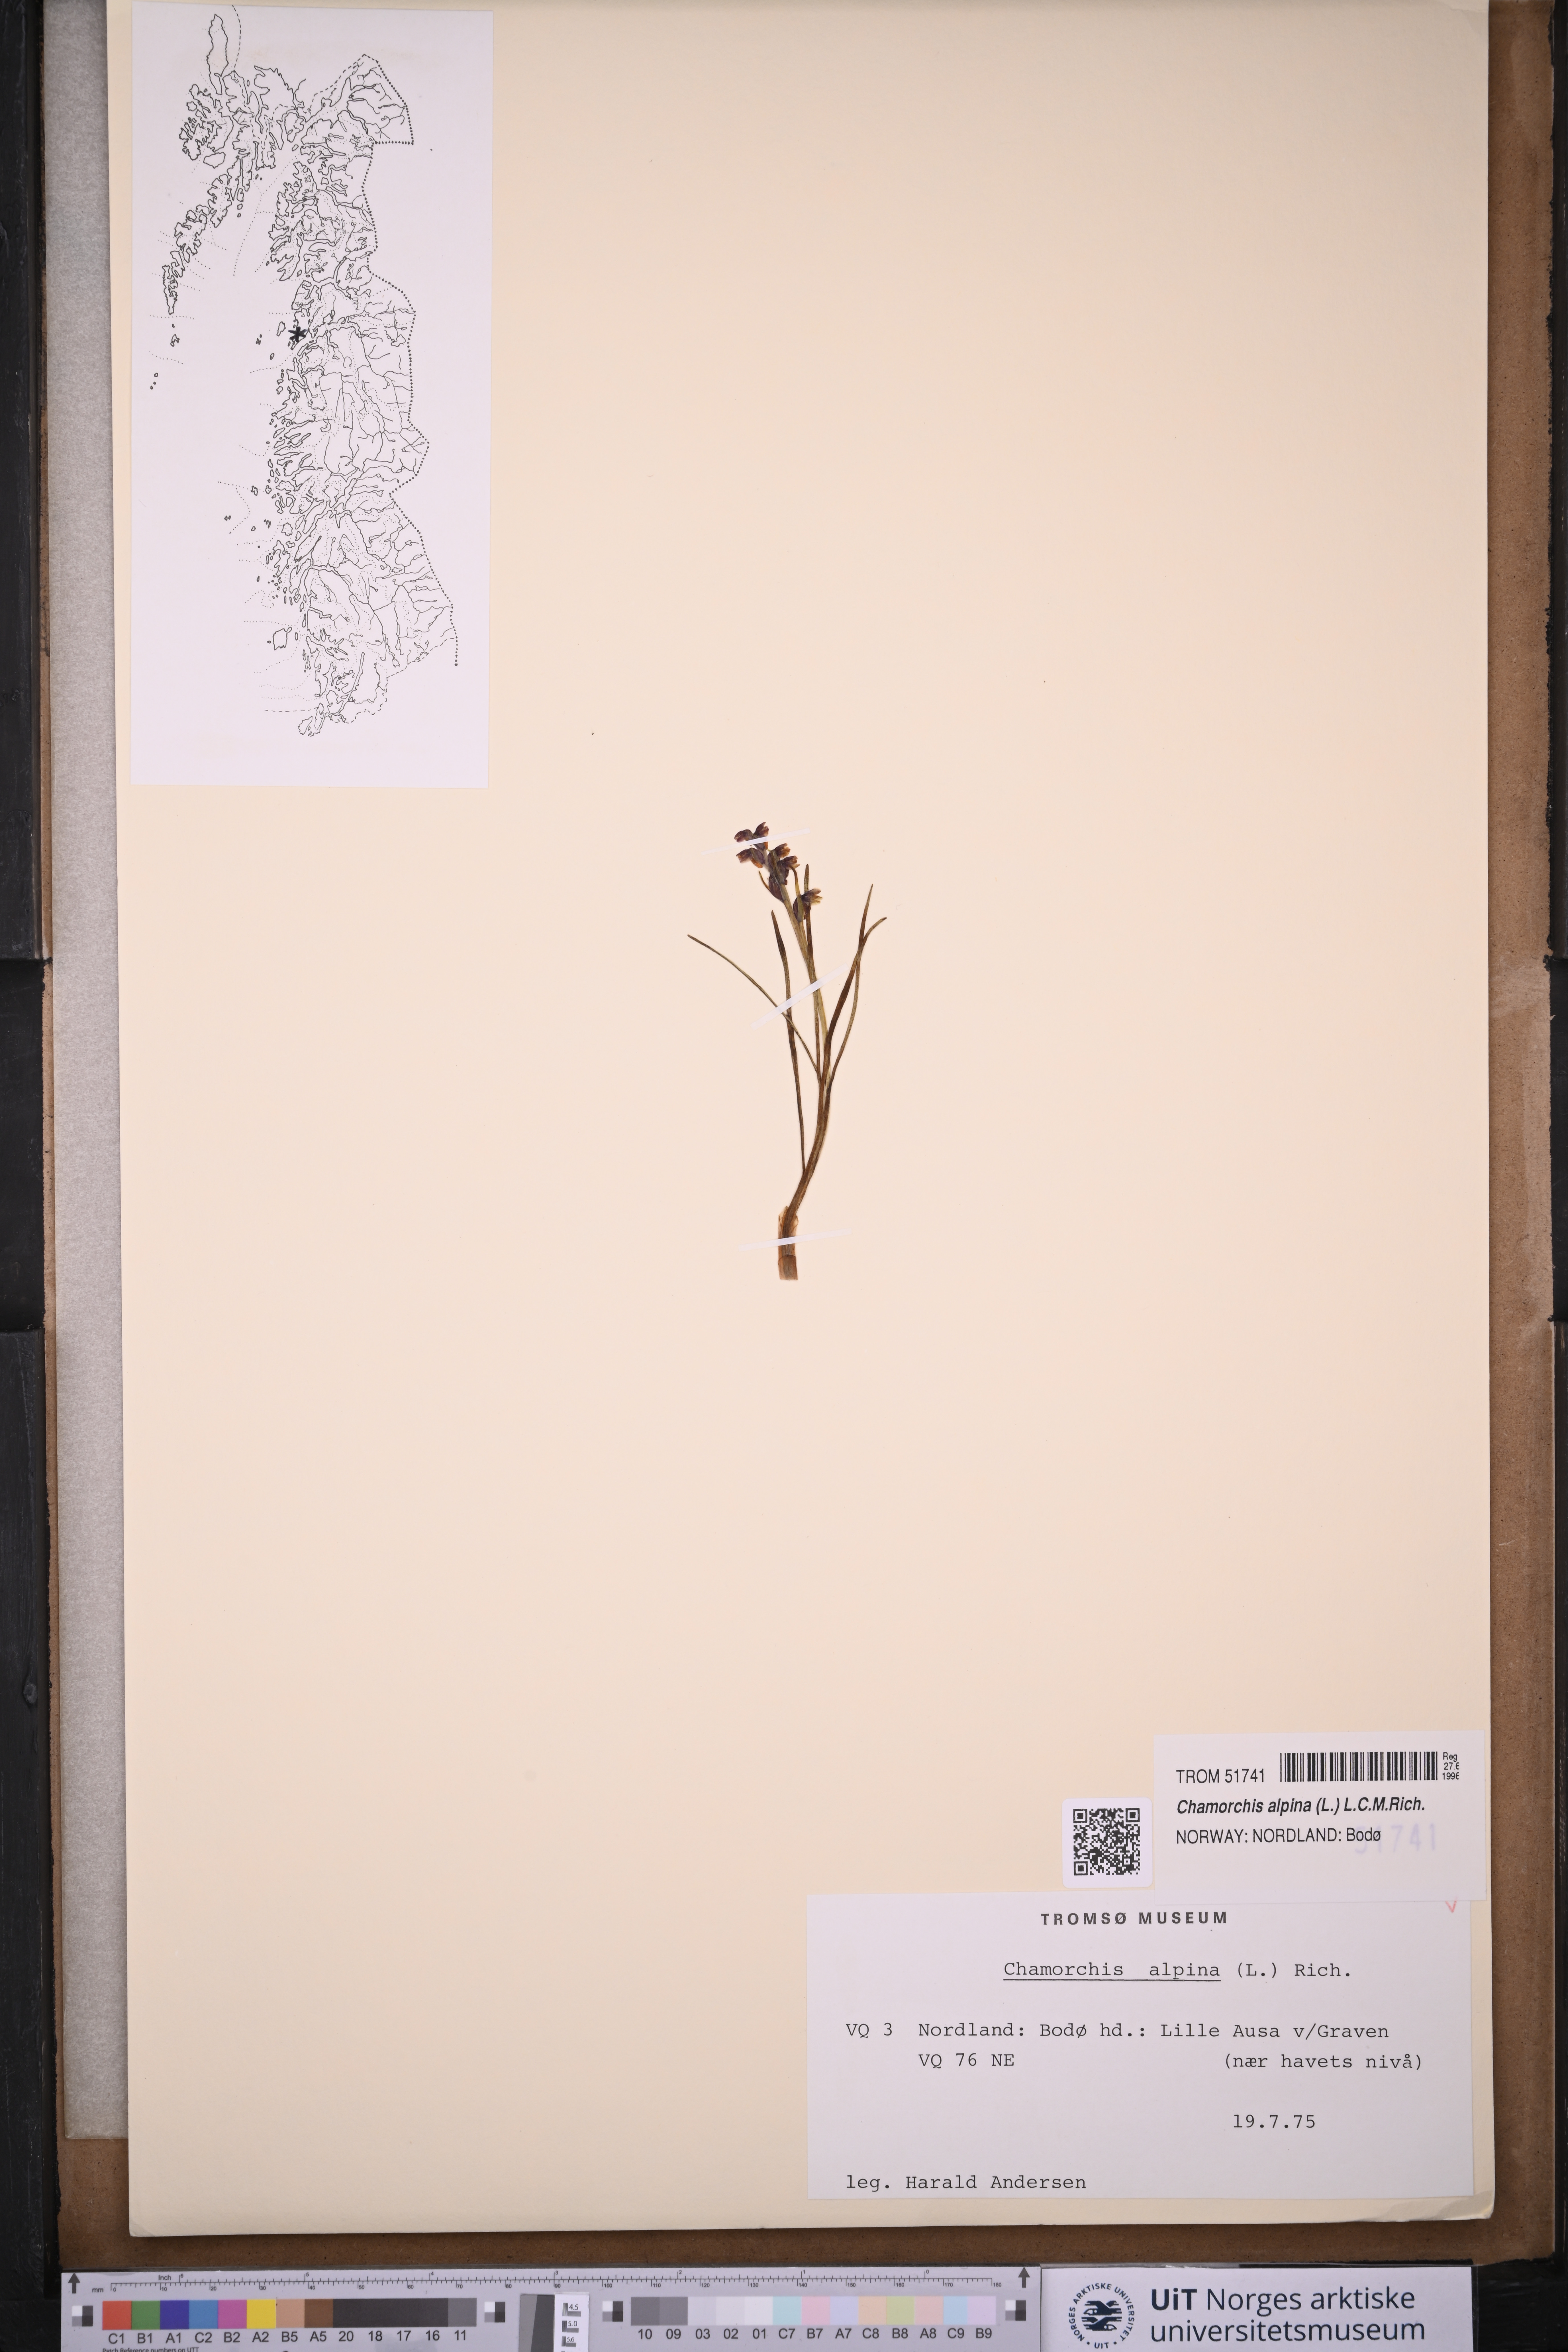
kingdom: Plantae
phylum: Tracheophyta
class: Liliopsida
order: Asparagales
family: Orchidaceae
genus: Chamorchis
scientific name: Chamorchis alpina
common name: Alpine chamorchis
